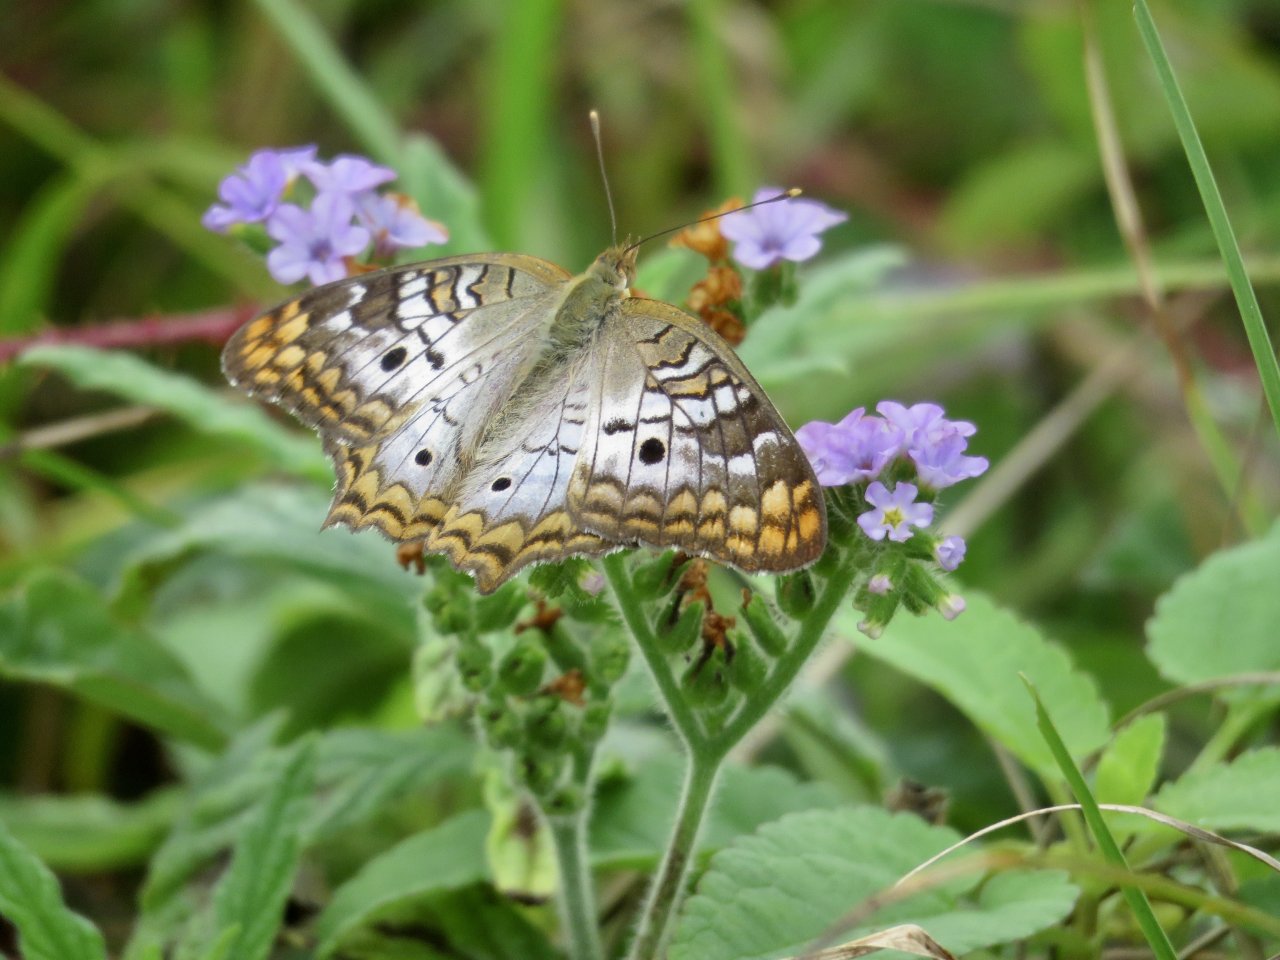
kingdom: Animalia
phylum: Arthropoda
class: Insecta
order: Lepidoptera
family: Nymphalidae
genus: Anartia
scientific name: Anartia jatrophae
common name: White Peacock
